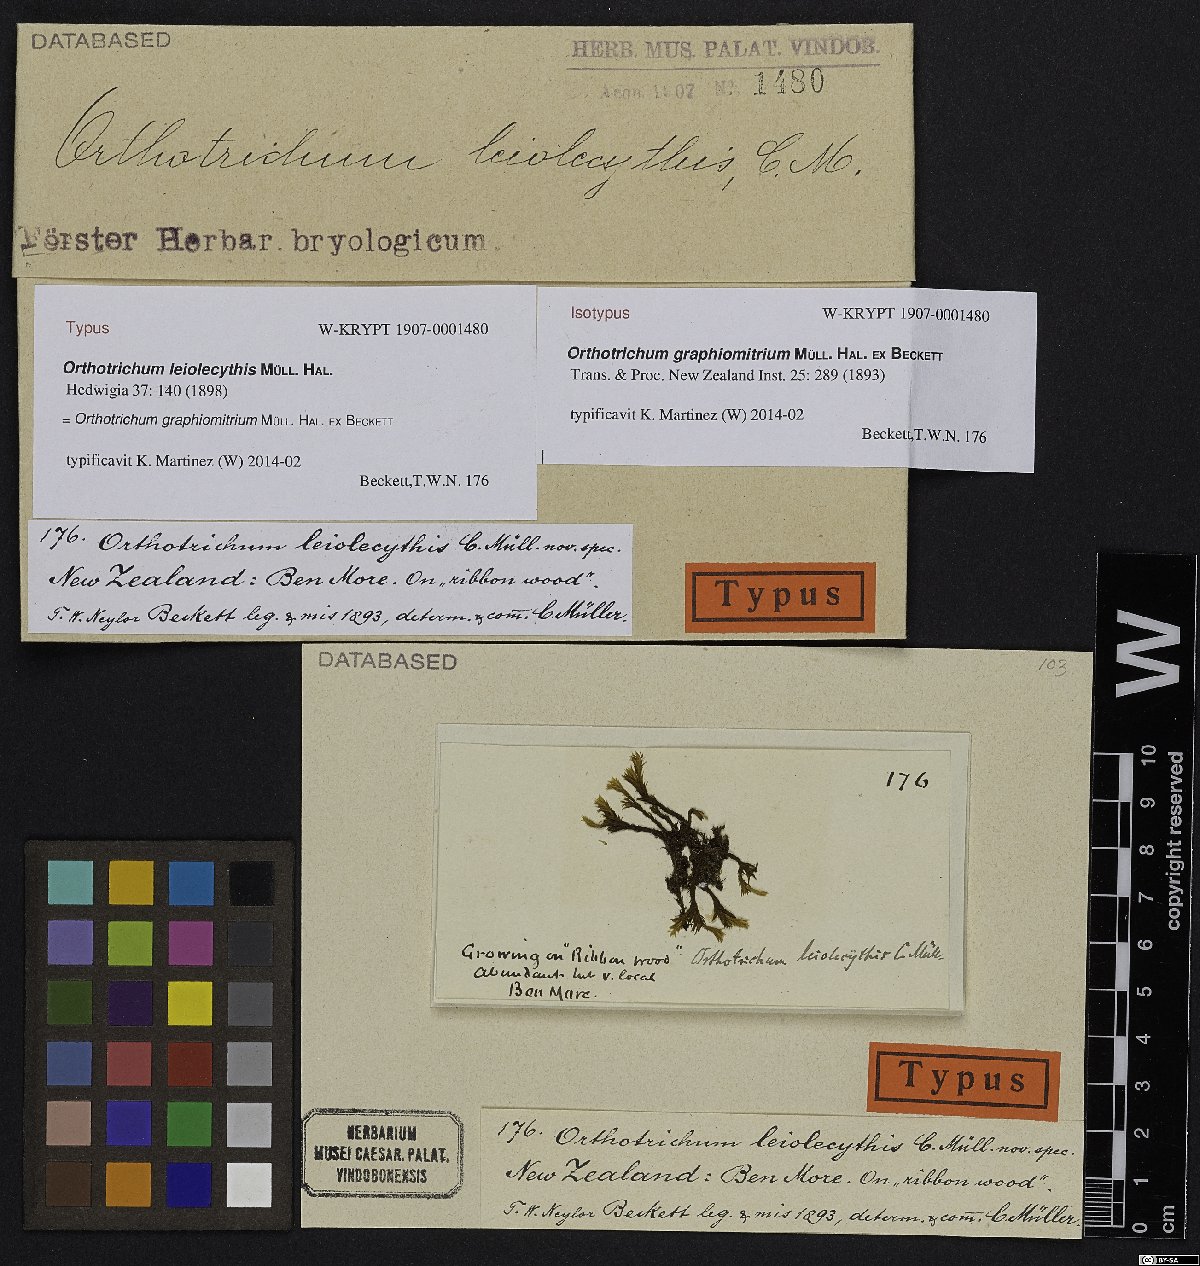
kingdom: Plantae
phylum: Bryophyta
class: Bryopsida
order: Orthotrichales
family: Orthotrichaceae
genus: Lewinskya
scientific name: Lewinskya graphiomitria
